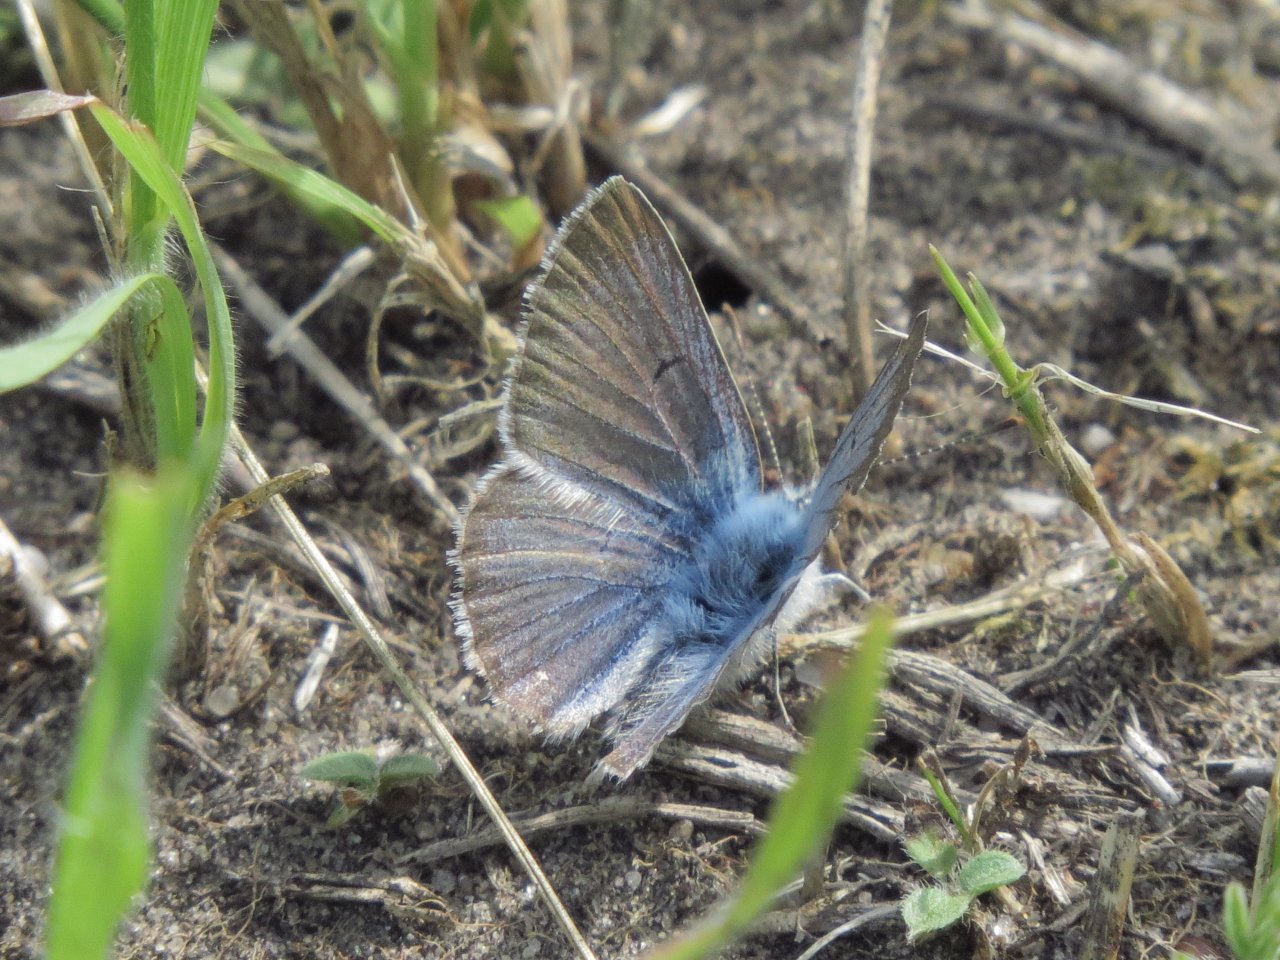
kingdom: Animalia
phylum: Arthropoda
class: Insecta
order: Lepidoptera
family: Lycaenidae
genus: Agriades
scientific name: Agriades glandon
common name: Arctic Blue
